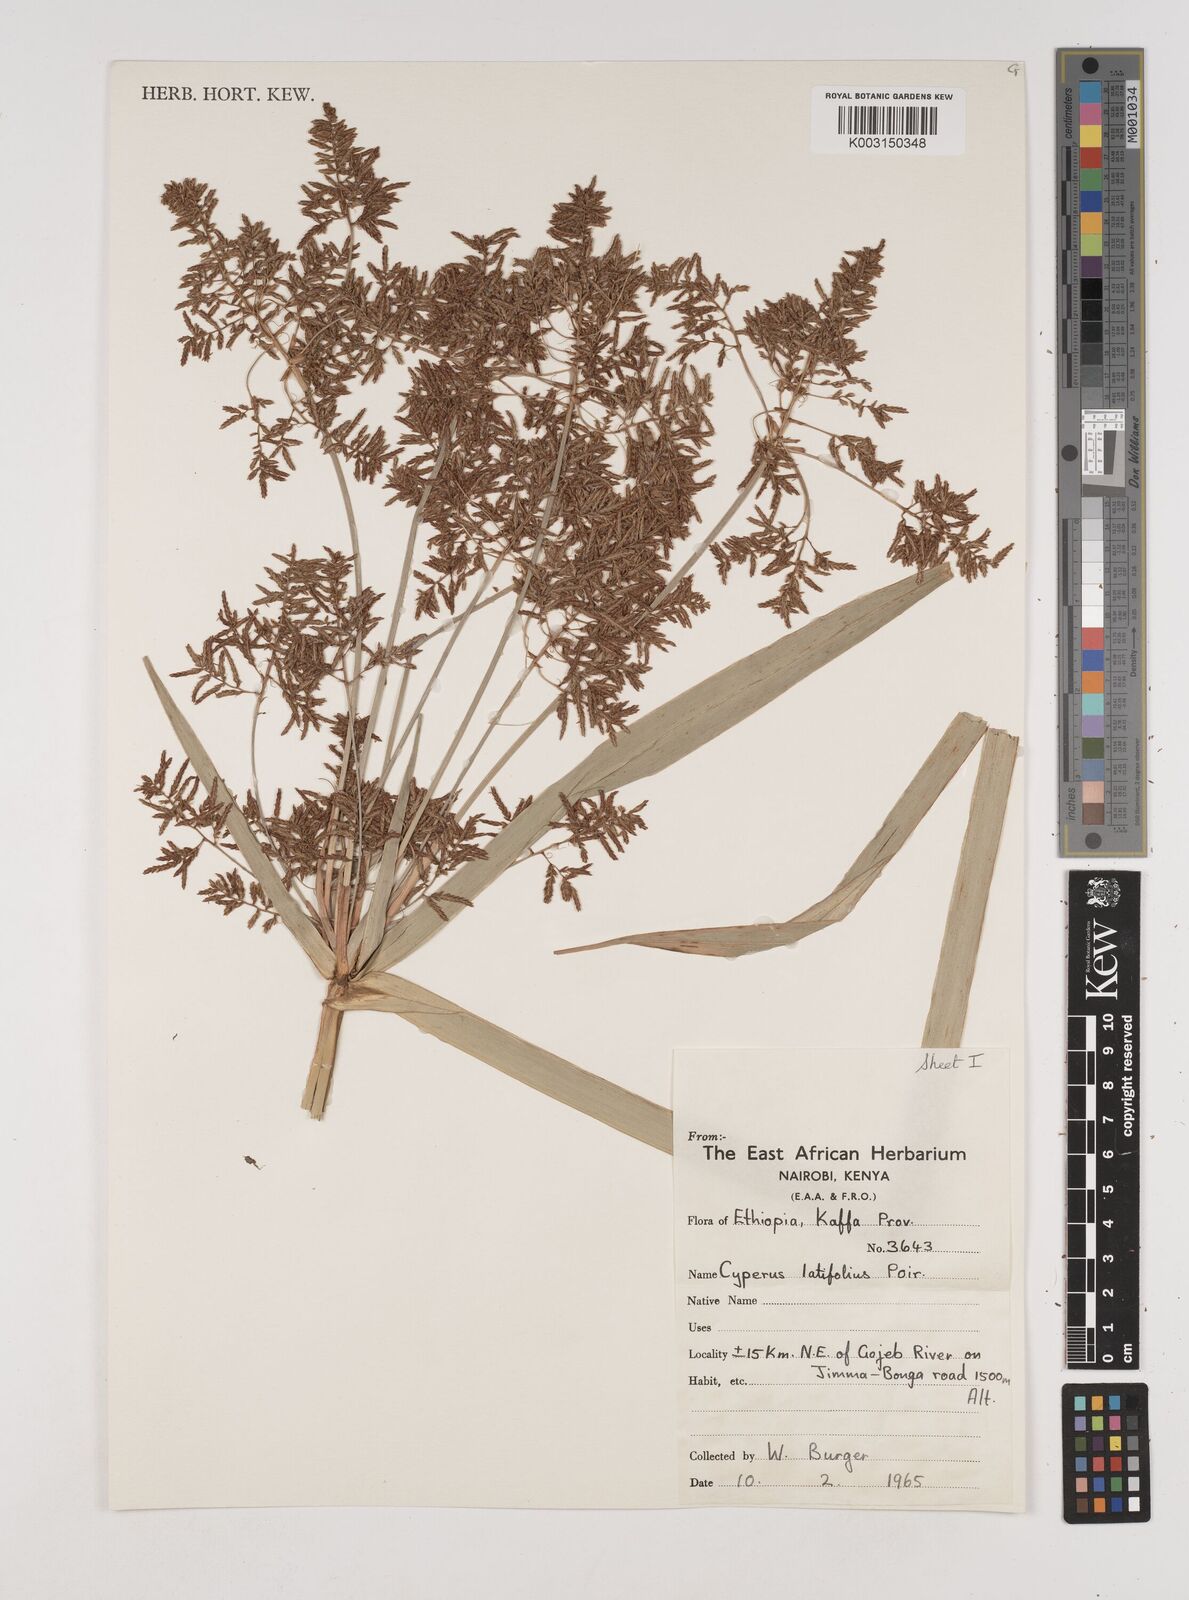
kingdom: Plantae
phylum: Tracheophyta
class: Liliopsida
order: Poales
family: Cyperaceae
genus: Cyperus
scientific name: Cyperus latifolius
